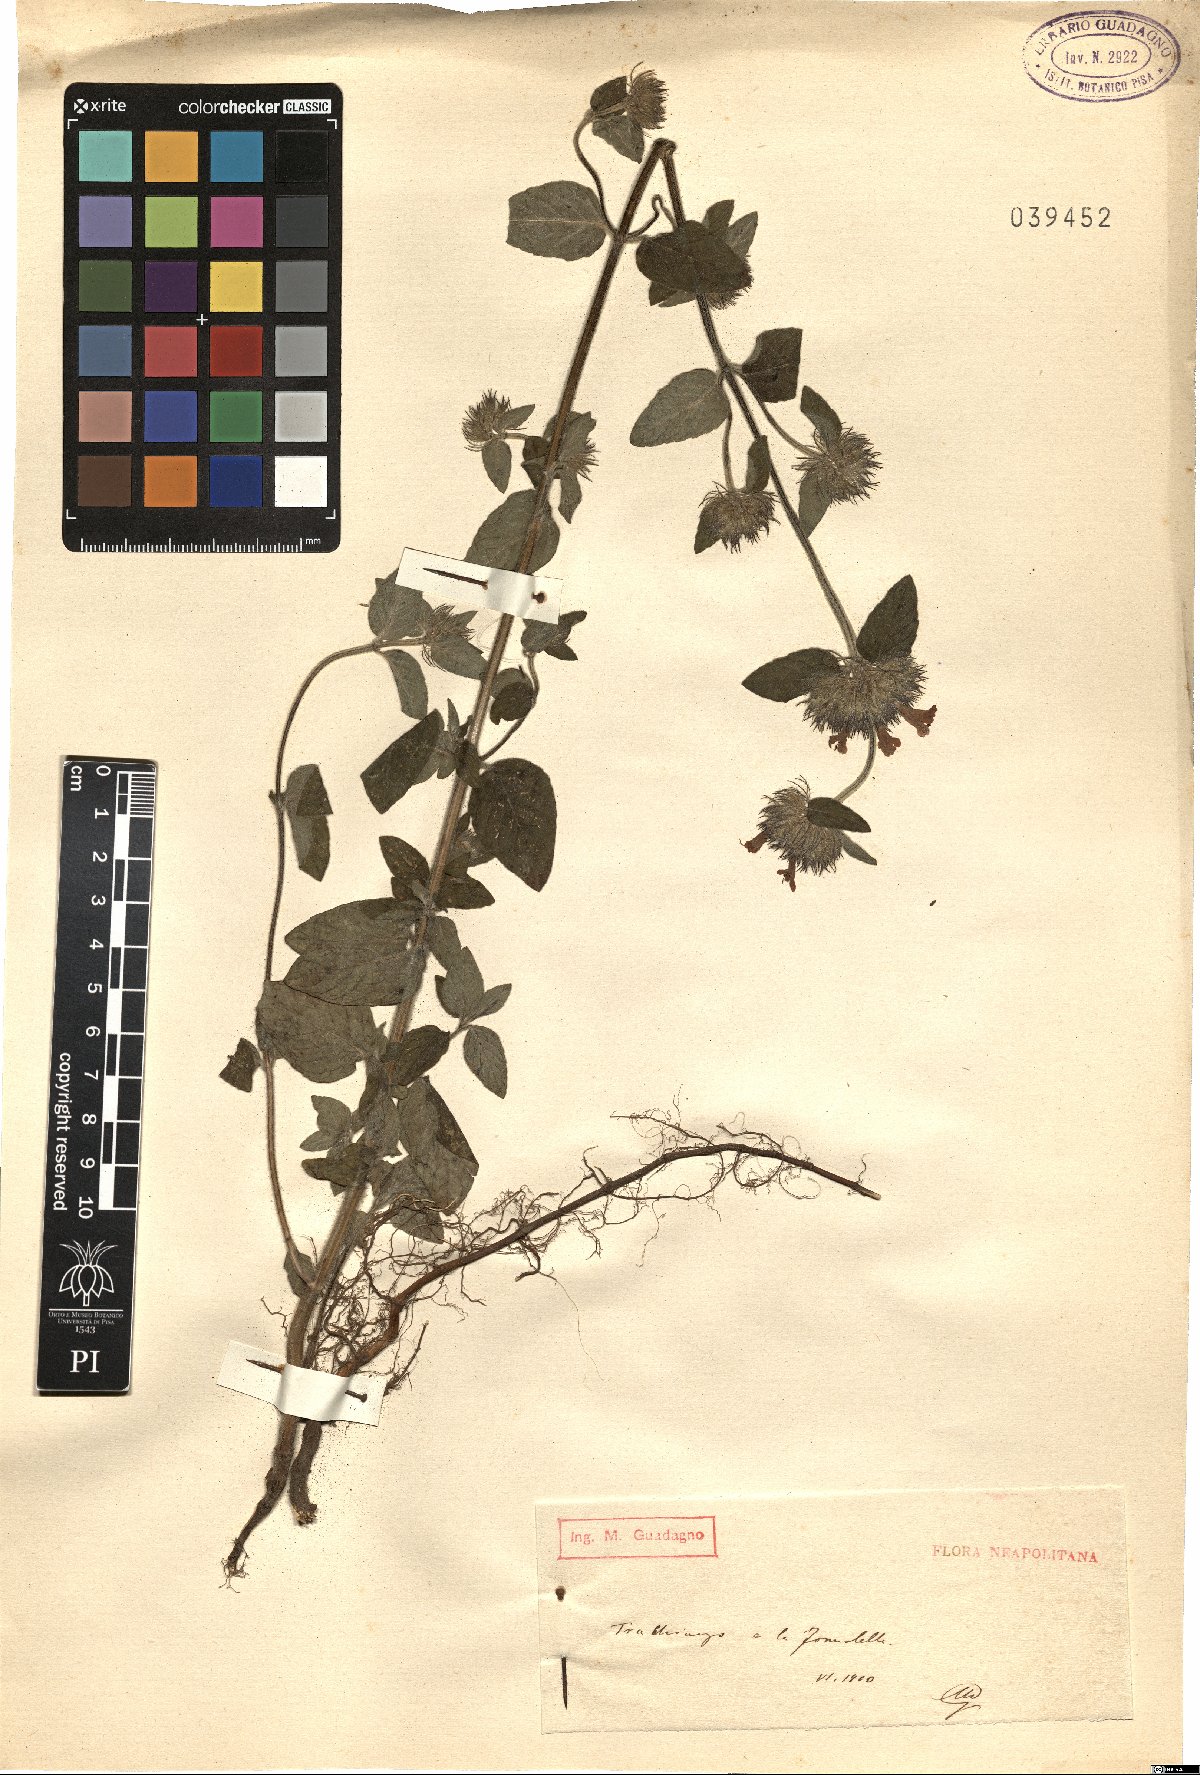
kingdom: Plantae
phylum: Tracheophyta
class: Magnoliopsida
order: Lamiales
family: Lamiaceae
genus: Calamintha
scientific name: Calamintha
